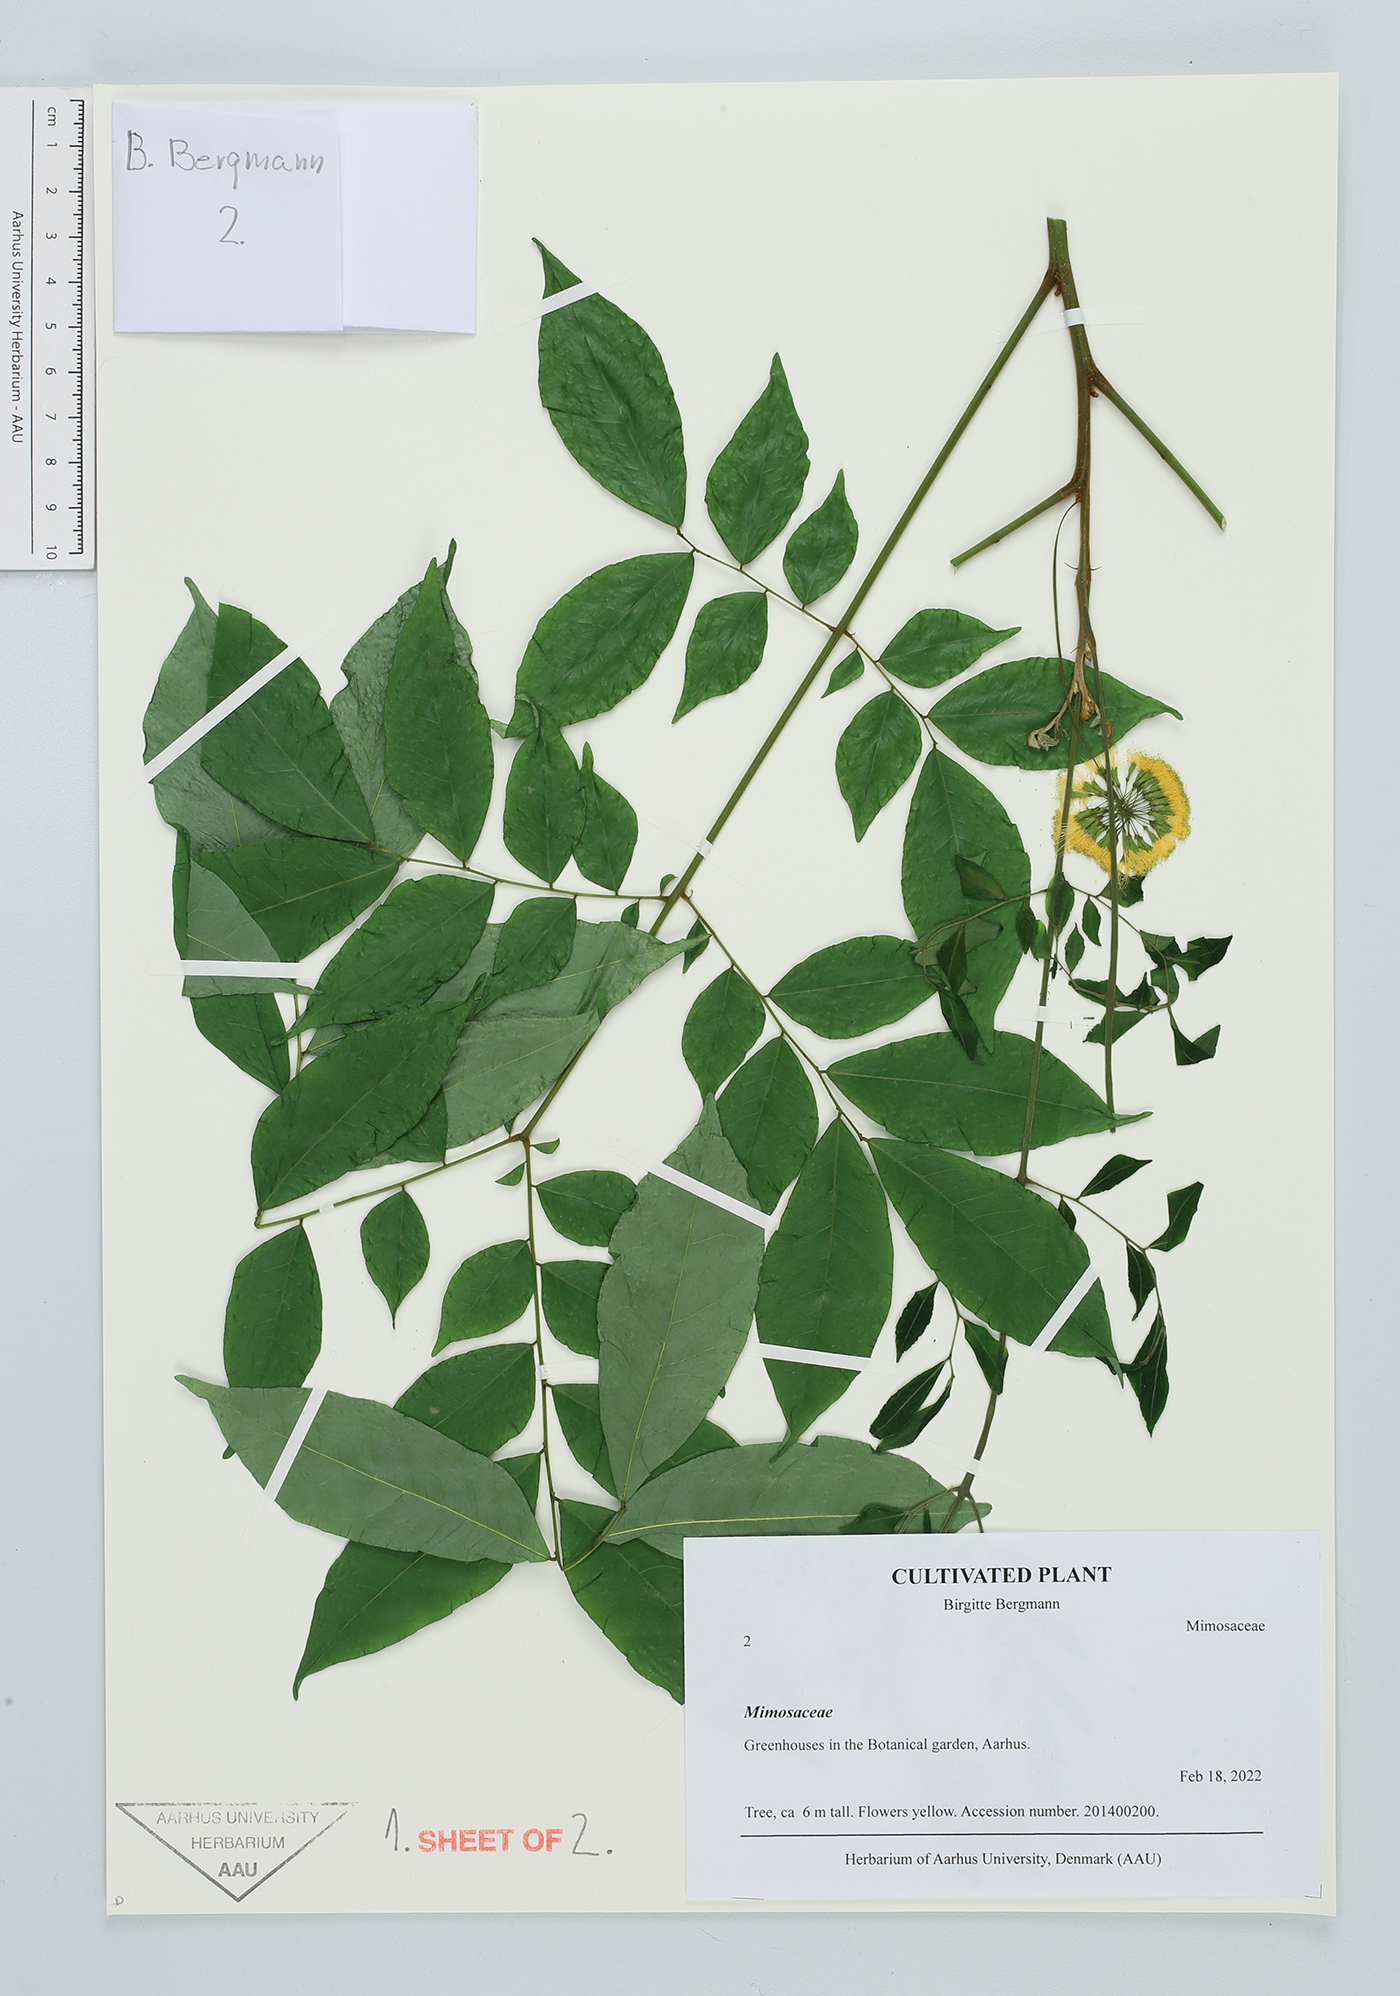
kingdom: Plantae
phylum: Tracheophyta
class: Magnoliopsida
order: Fabales
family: Fabaceae
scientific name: Fabaceae
